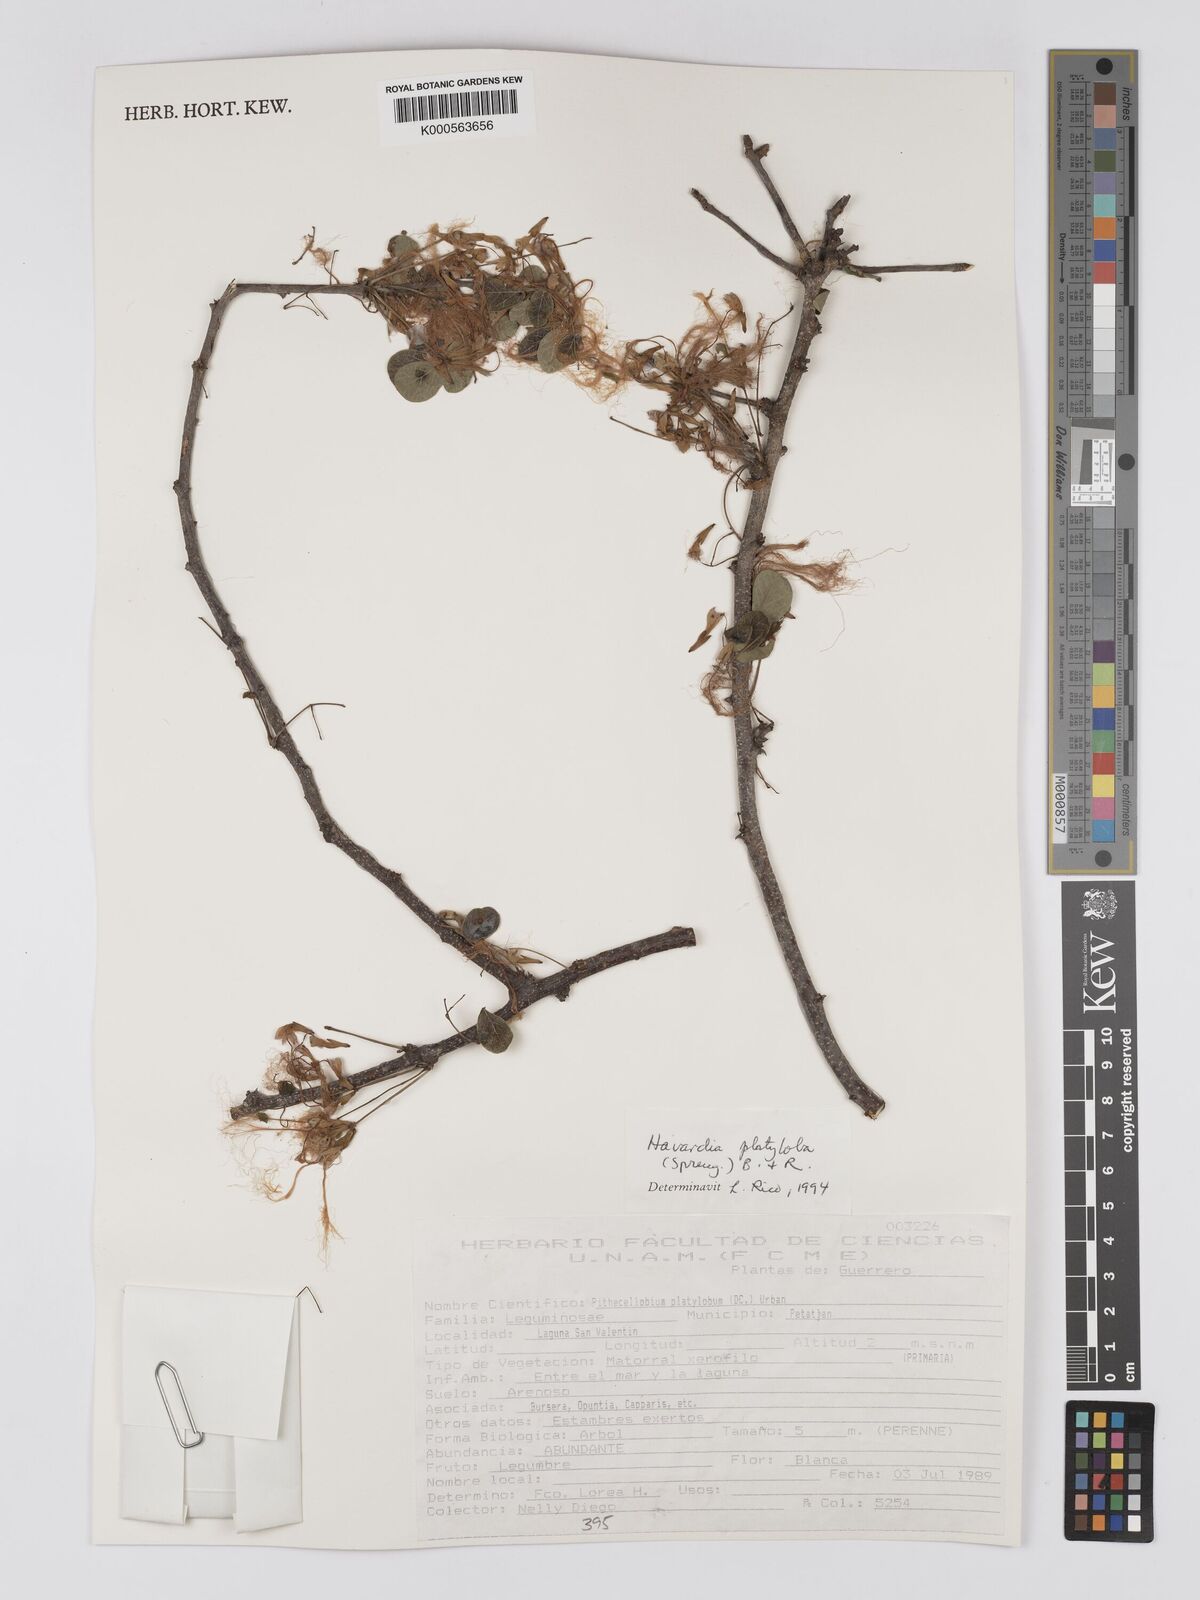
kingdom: Plantae
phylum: Tracheophyta
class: Magnoliopsida
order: Fabales
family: Fabaceae
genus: Havardia
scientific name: Havardia platyloba
